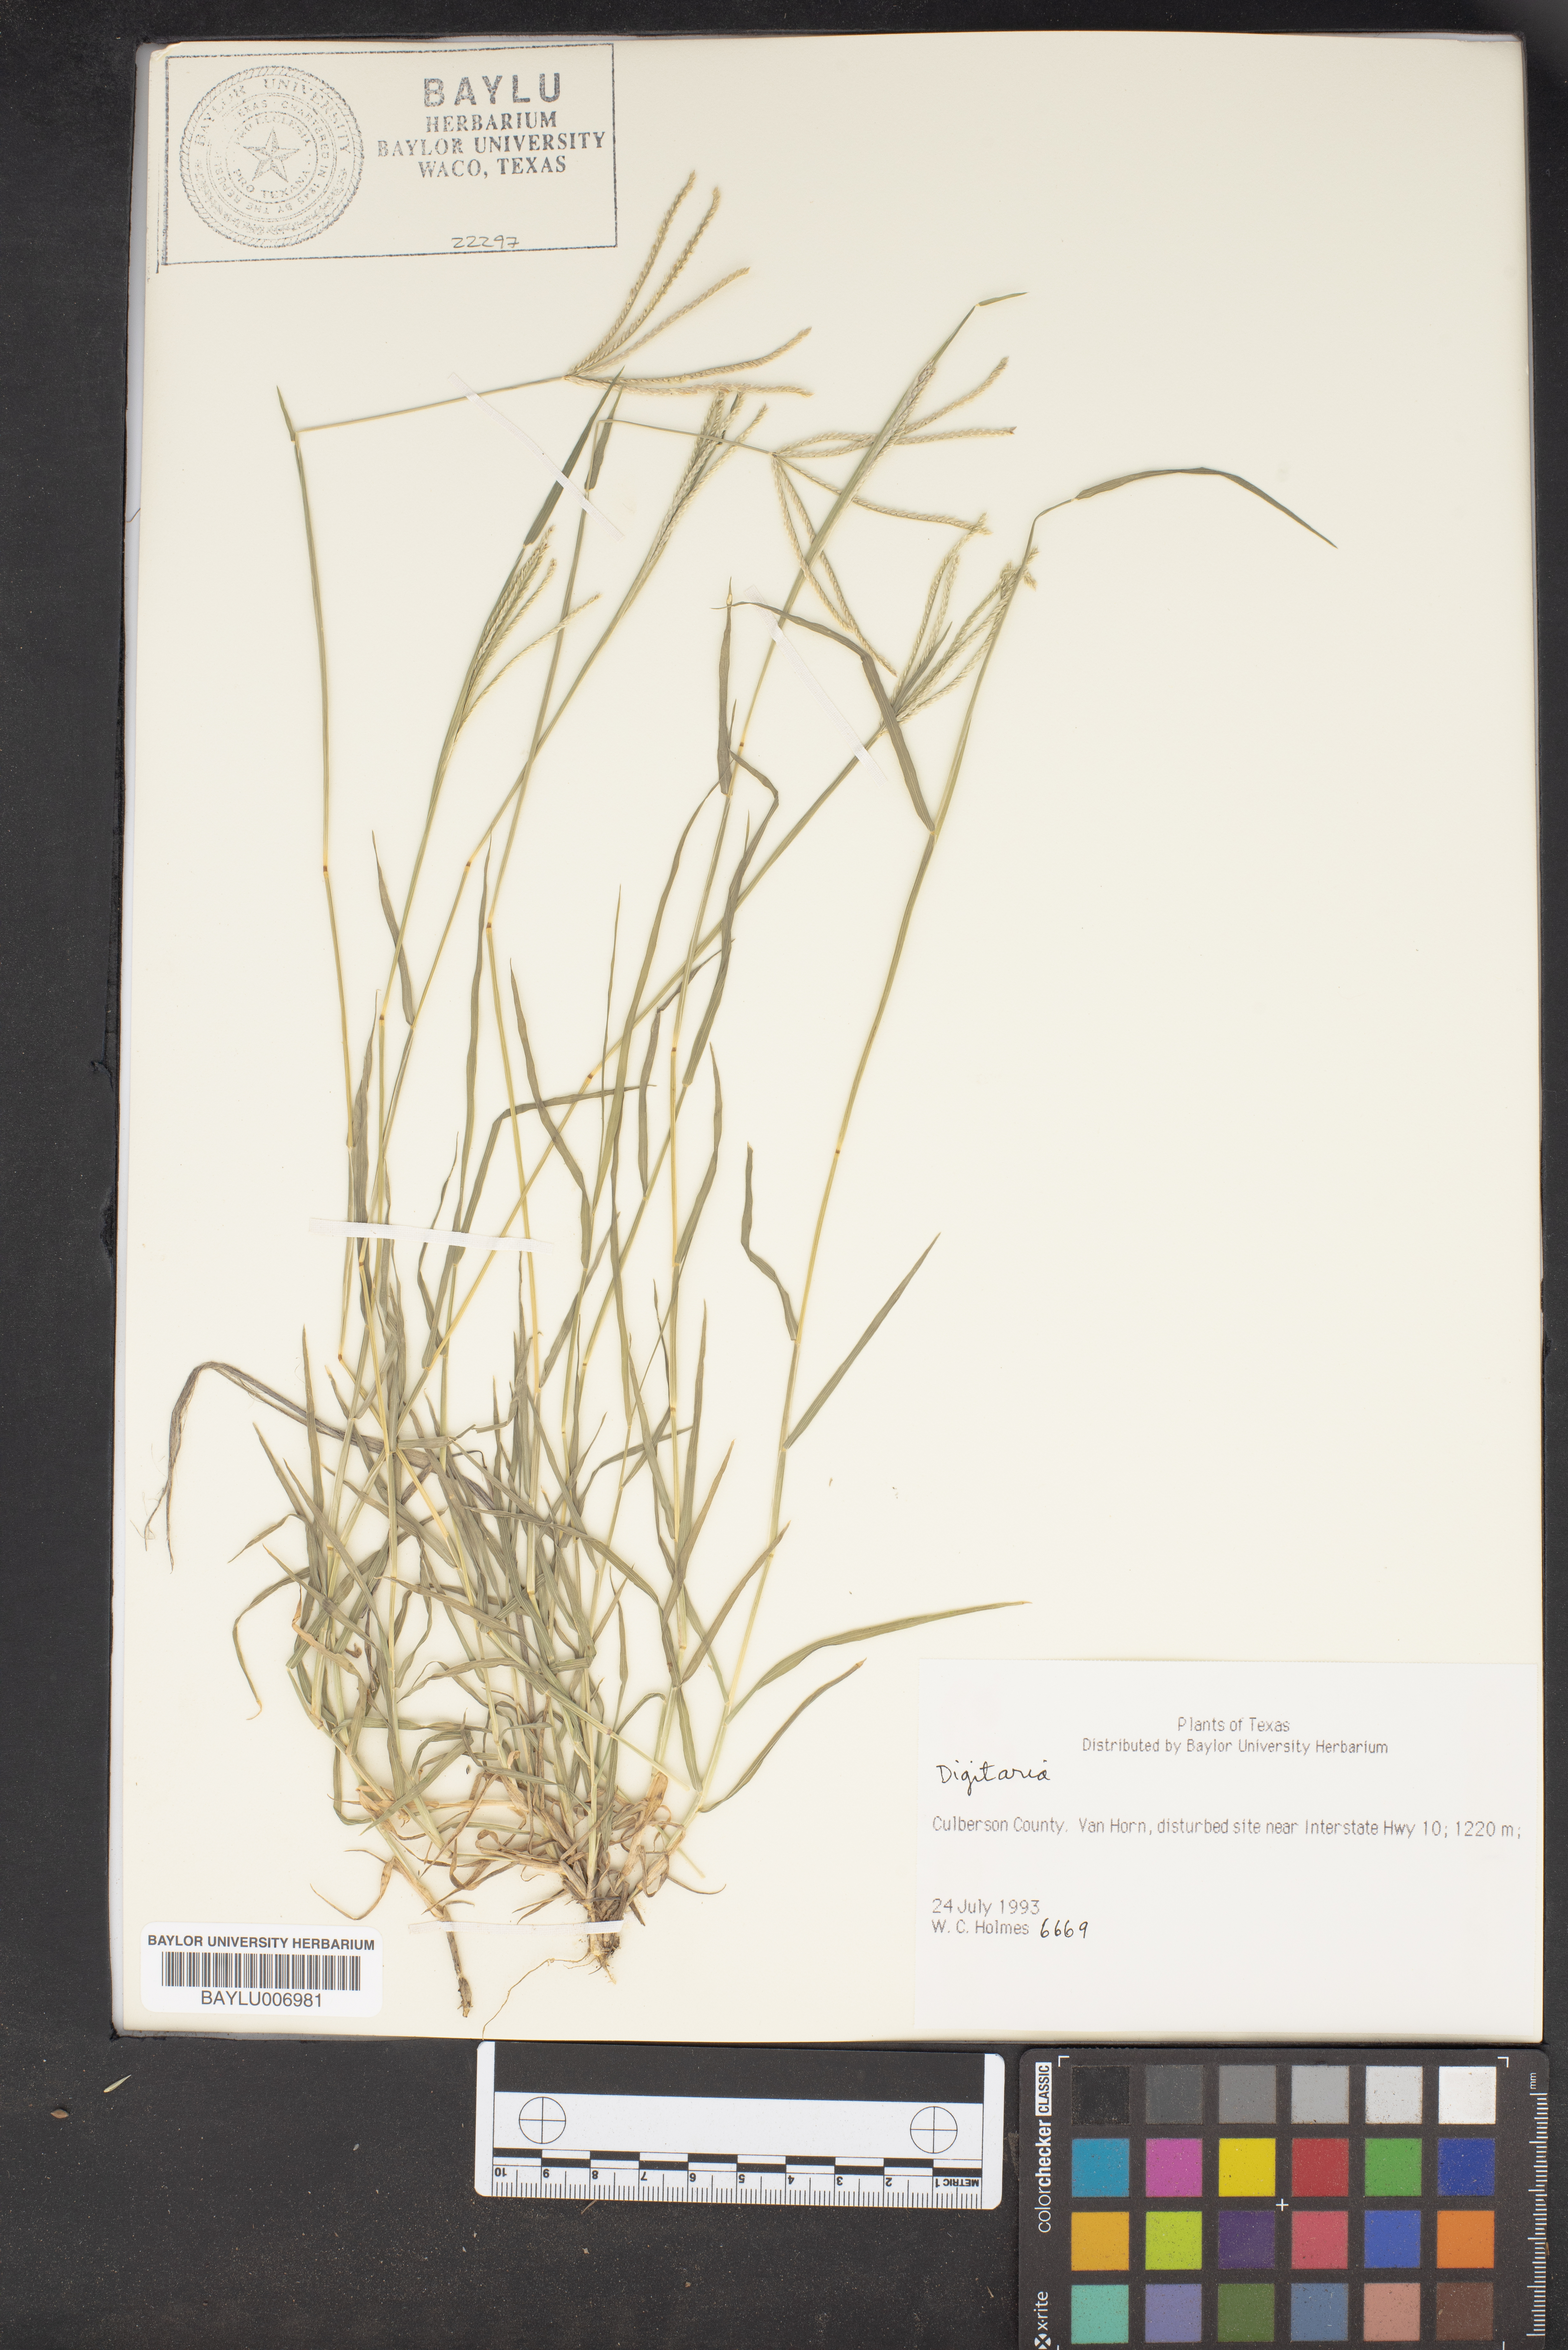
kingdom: Plantae
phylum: Tracheophyta
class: Liliopsida
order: Poales
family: Poaceae
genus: Digitaria
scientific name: Digitaria
